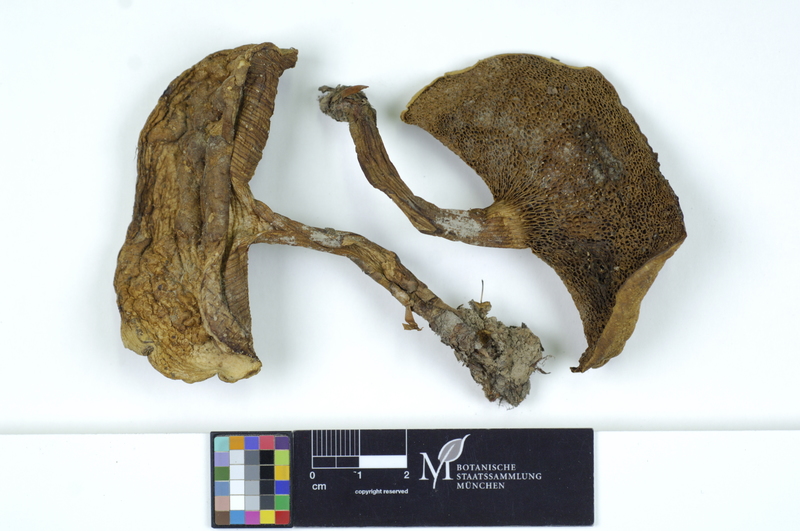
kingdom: Fungi
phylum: Basidiomycota
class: Agaricomycetes
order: Boletales
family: Boletaceae
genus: Cyanoboletus
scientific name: Cyanoboletus pulverulentus
